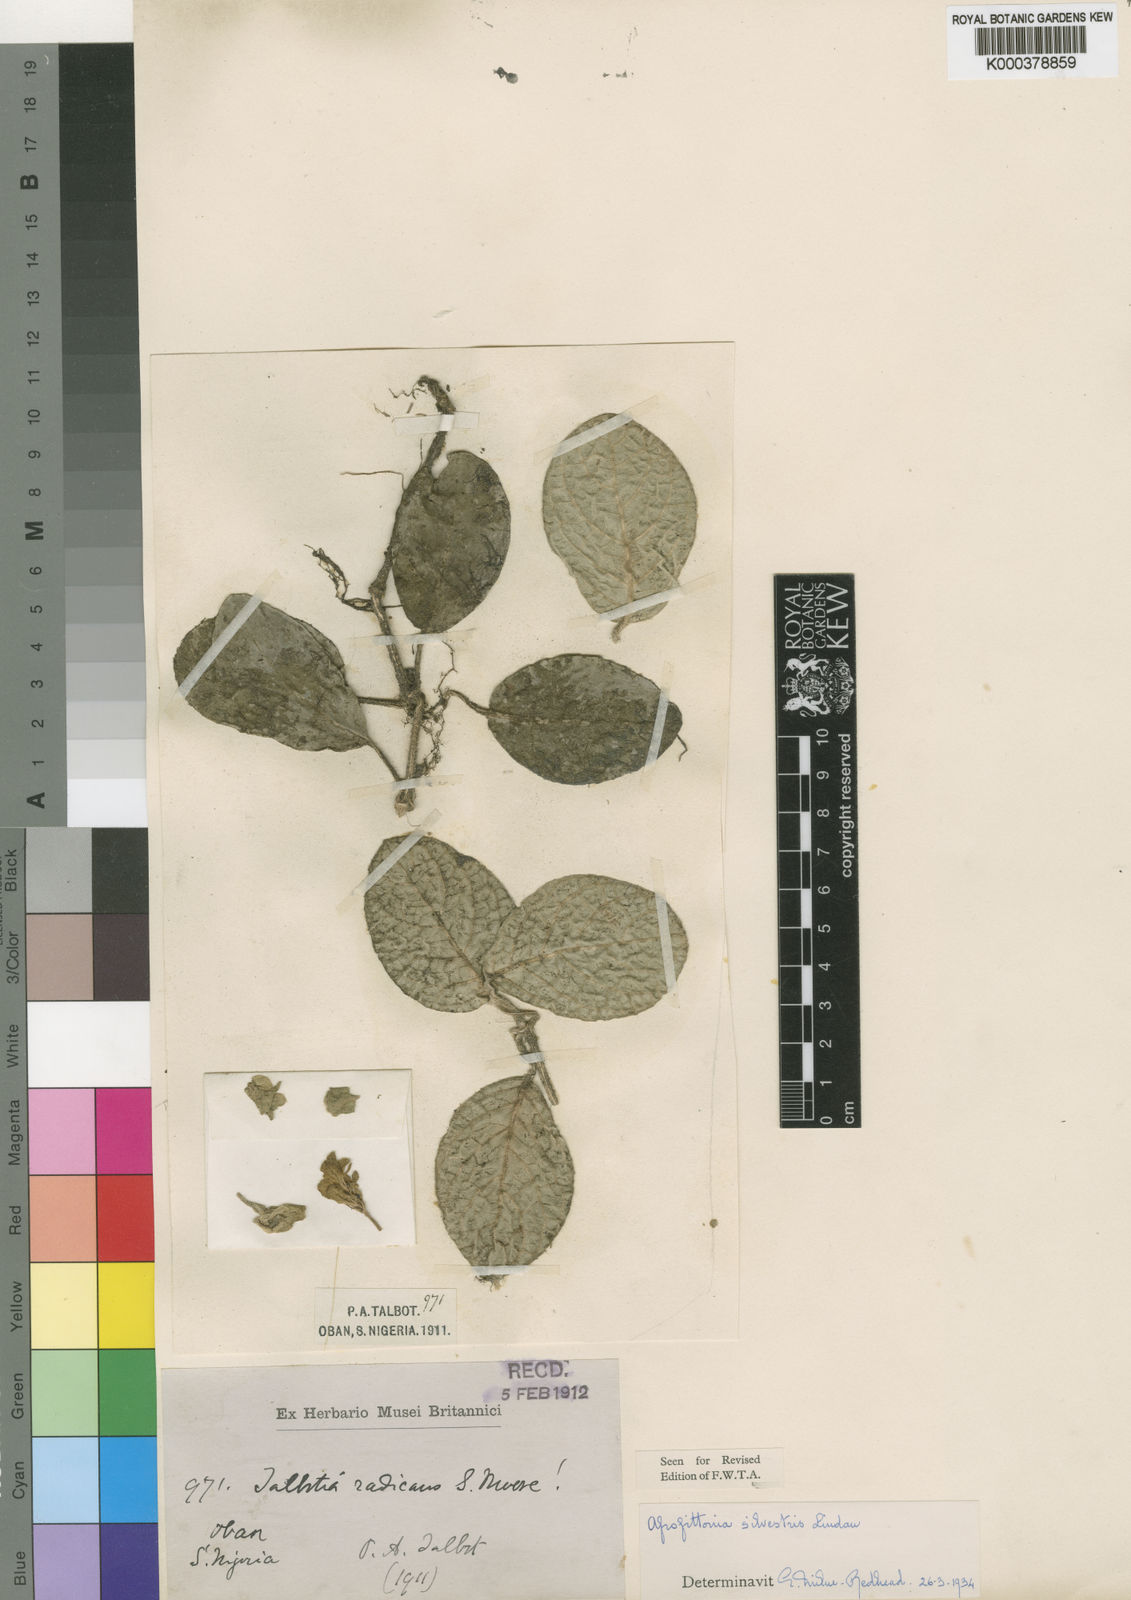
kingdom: Plantae
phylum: Tracheophyta
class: Magnoliopsida
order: Lamiales
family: Acanthaceae
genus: Afrofittonia
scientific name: Afrofittonia silvestris
